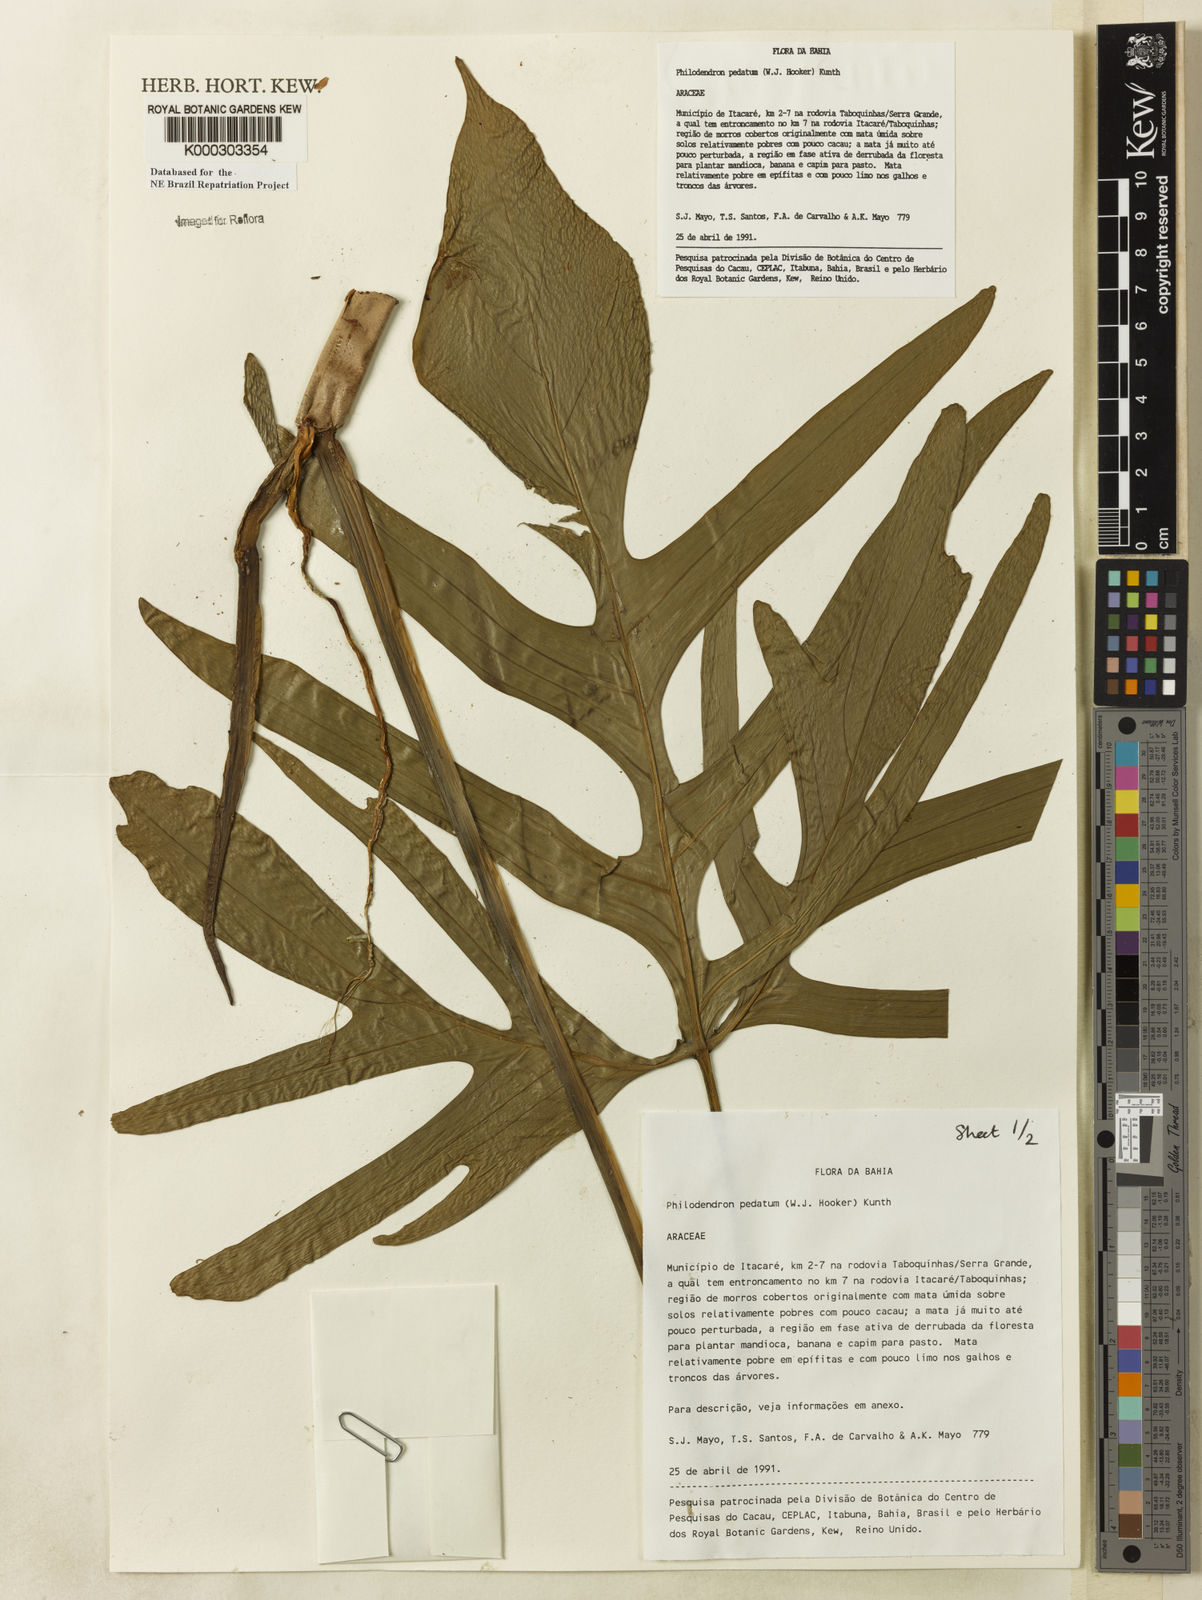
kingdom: Plantae
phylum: Tracheophyta
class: Liliopsida
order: Alismatales
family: Araceae
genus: Philodendron
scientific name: Philodendron pedatum
